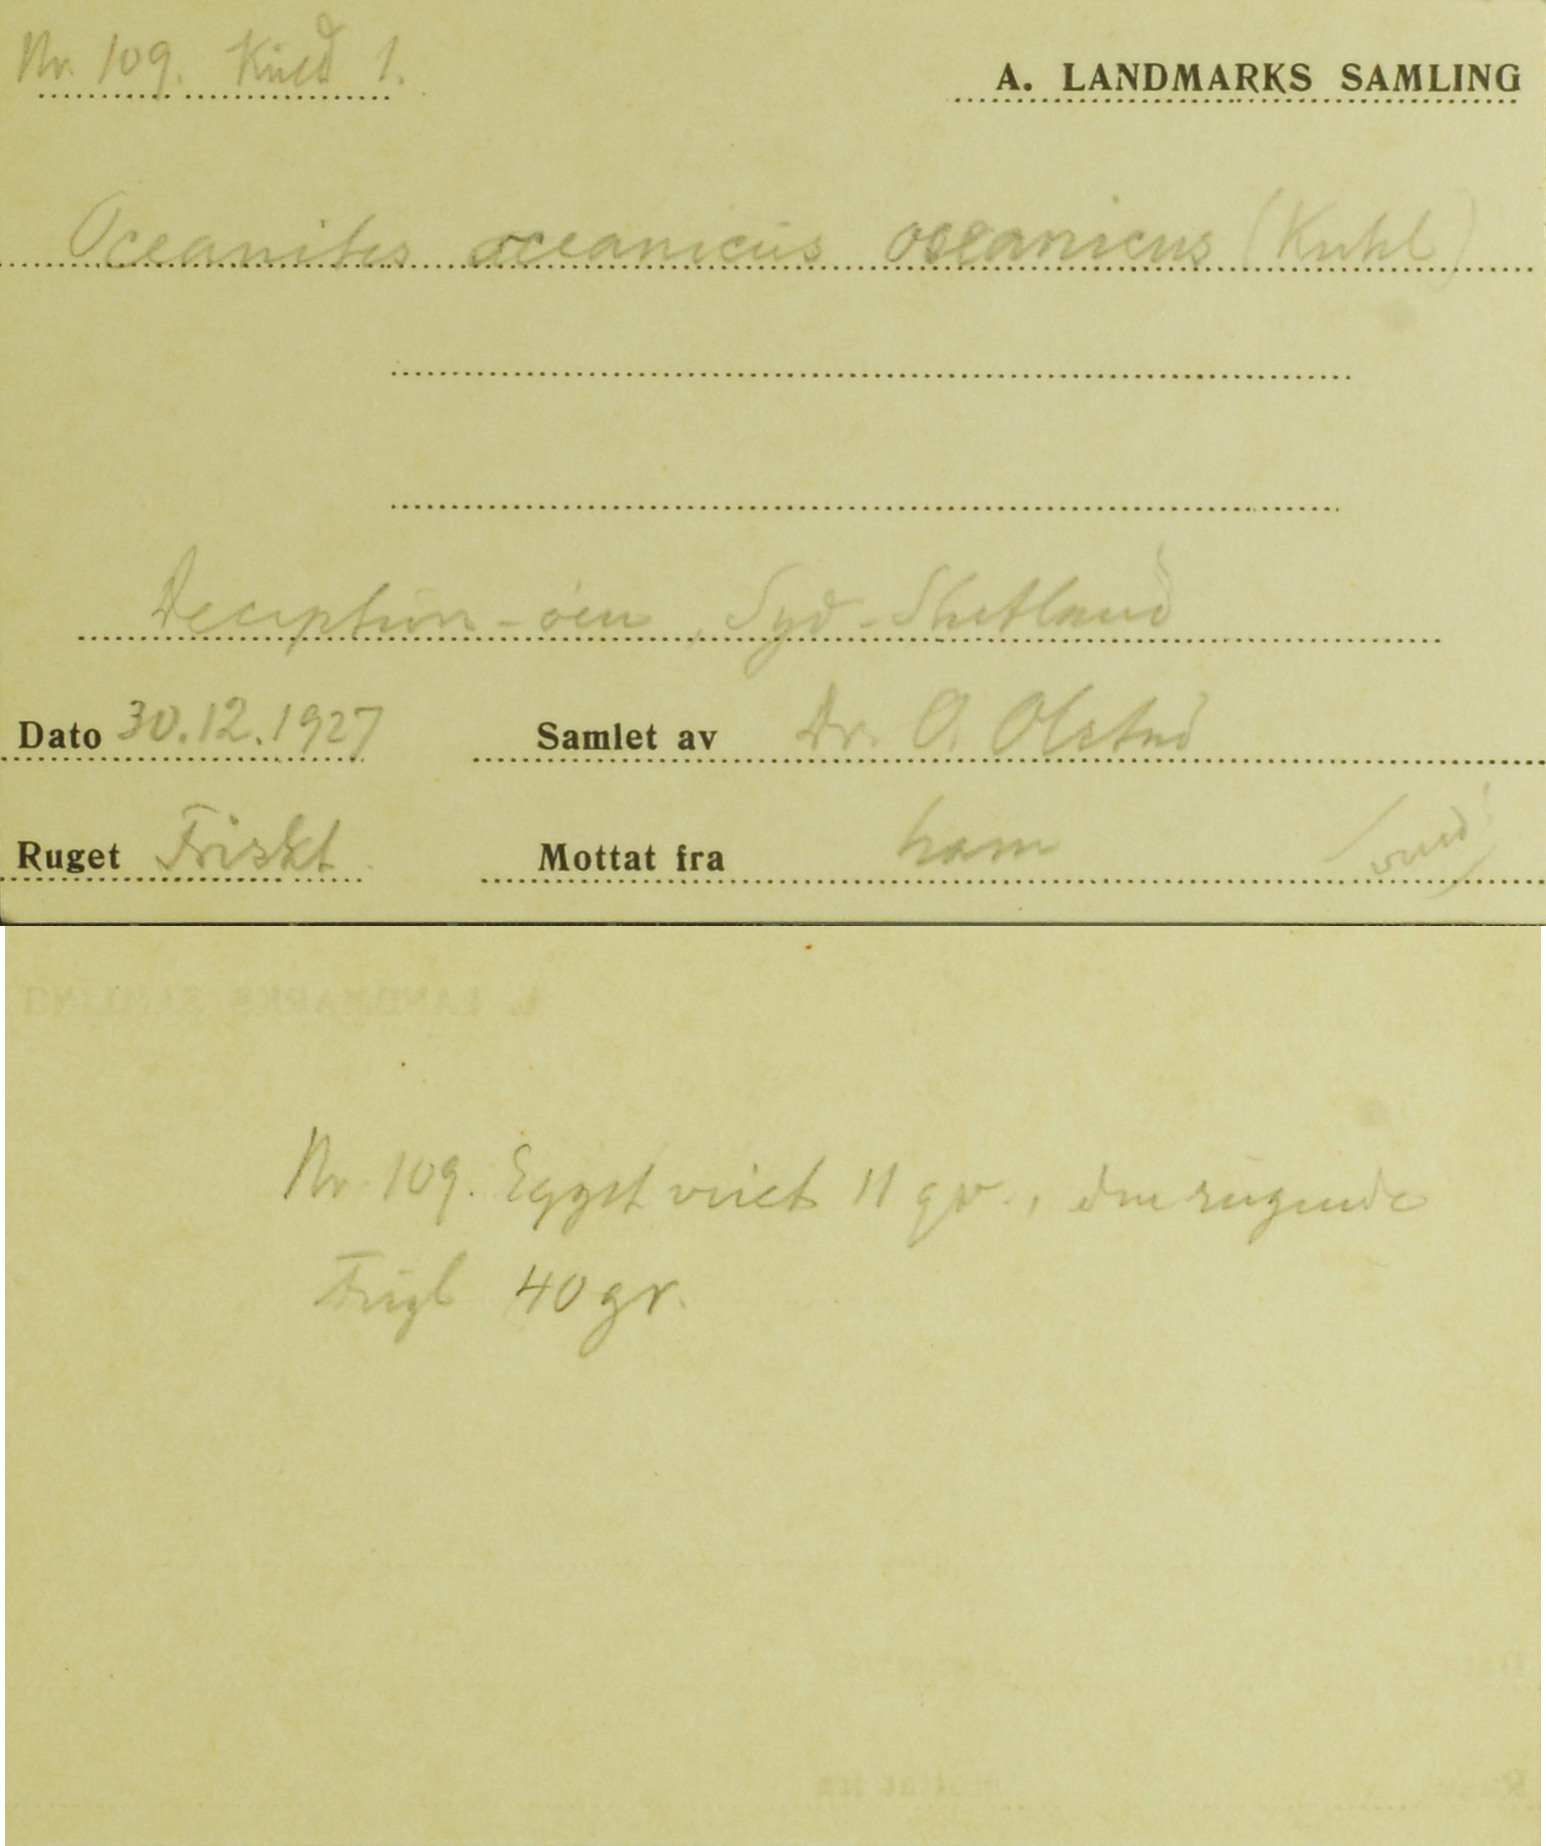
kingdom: Animalia
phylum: Chordata
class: Aves
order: Procellariiformes
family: Hydrobatidae
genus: Oceanites
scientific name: Oceanites oceanicus
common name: Wilson's storm petrel
